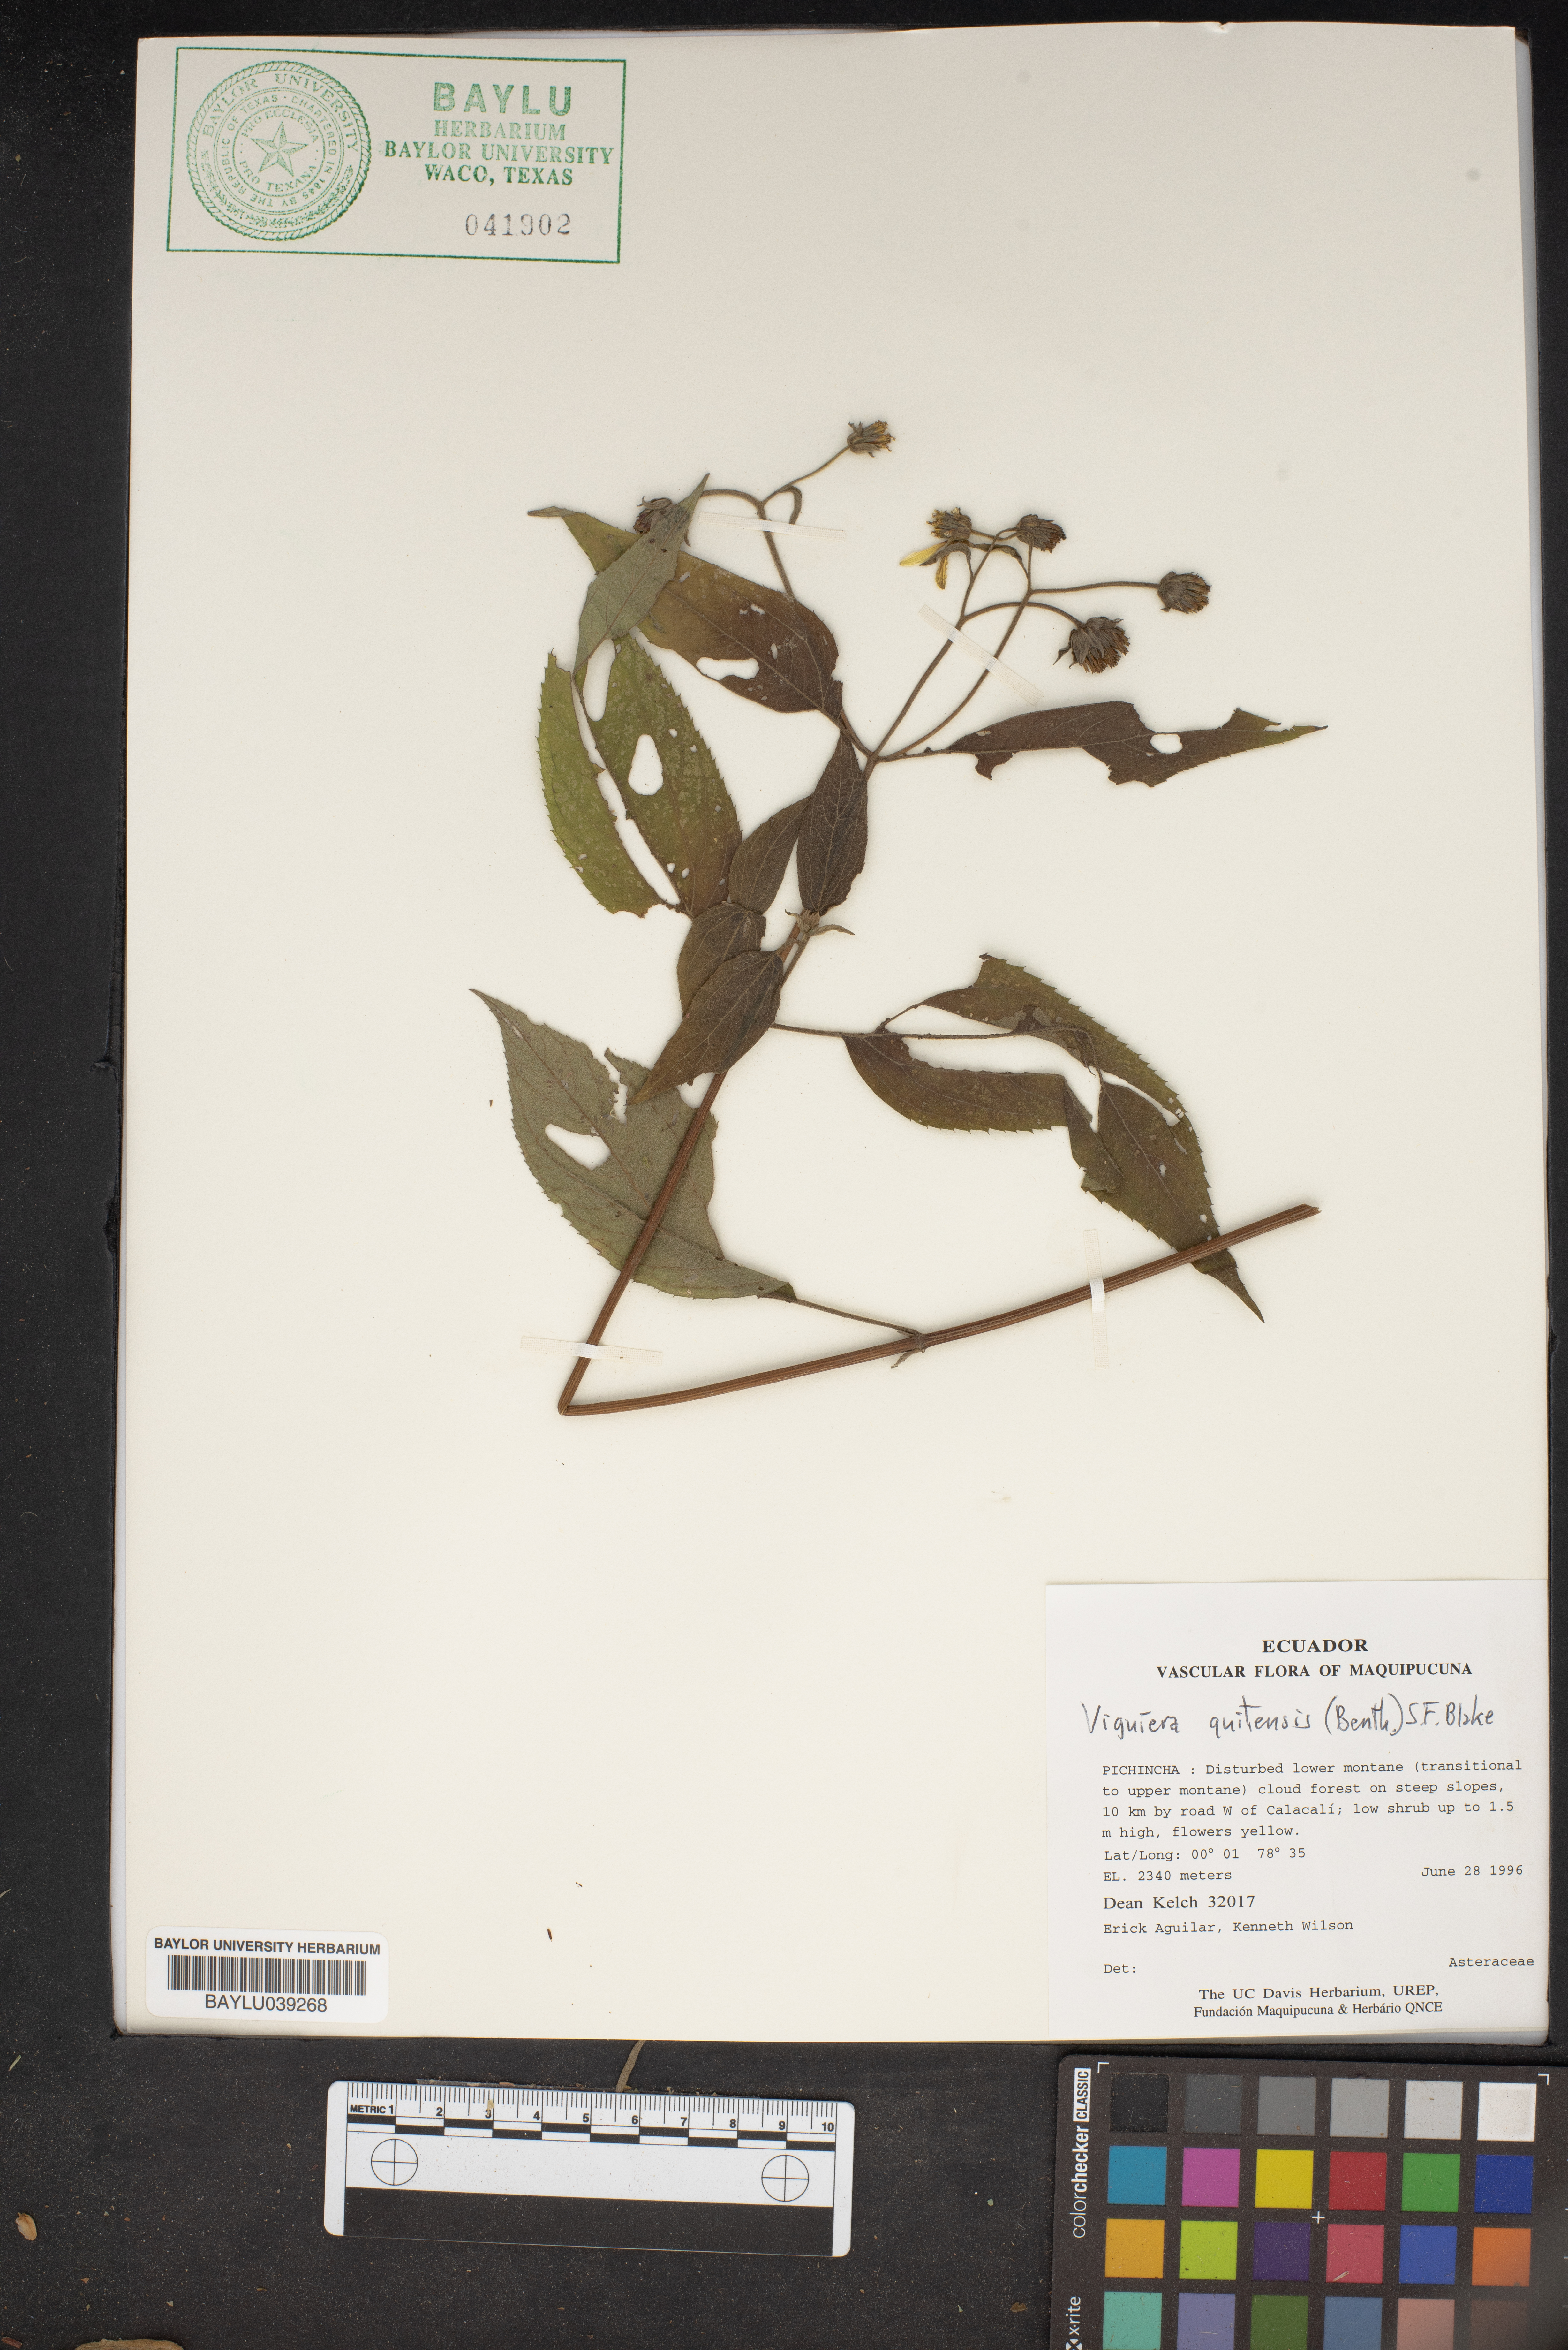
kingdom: Plantae
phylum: Tracheophyta
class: Magnoliopsida
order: Asterales
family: Asteraceae
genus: Hymenostephium
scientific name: Hymenostephium quitensis
